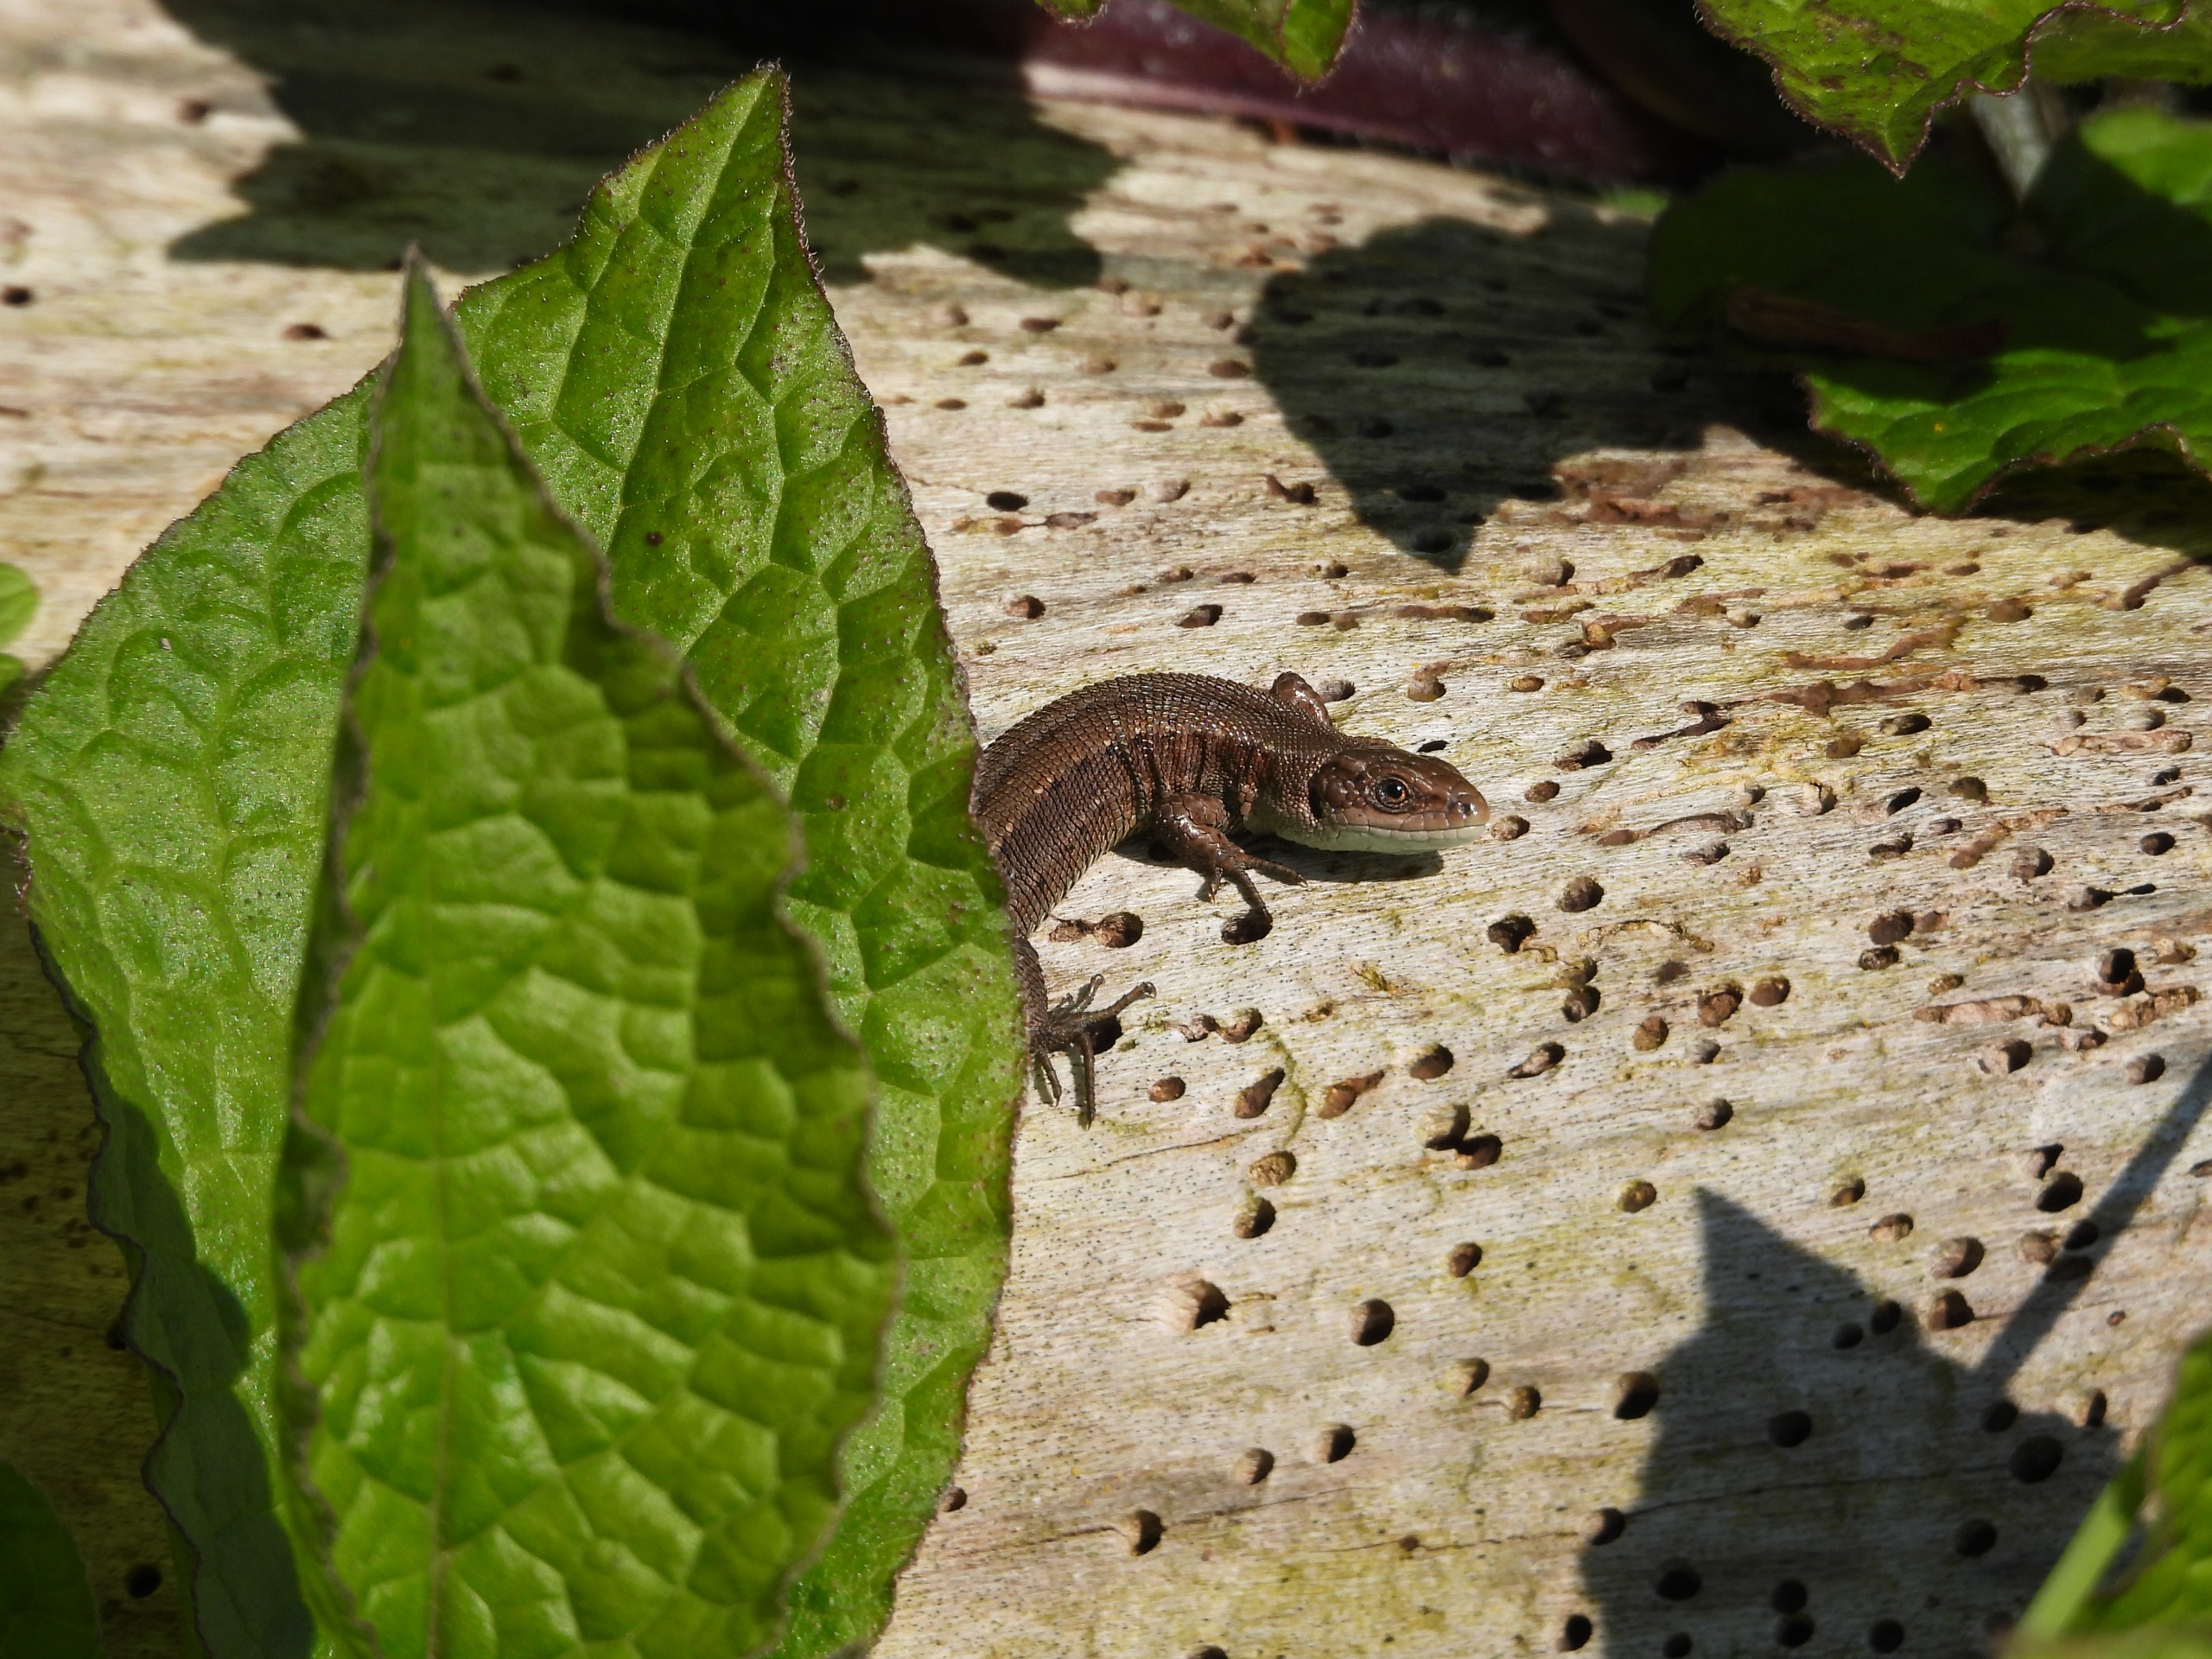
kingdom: Animalia
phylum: Chordata
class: Squamata
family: Lacertidae
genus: Zootoca
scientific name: Zootoca vivipara
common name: Skovfirben
